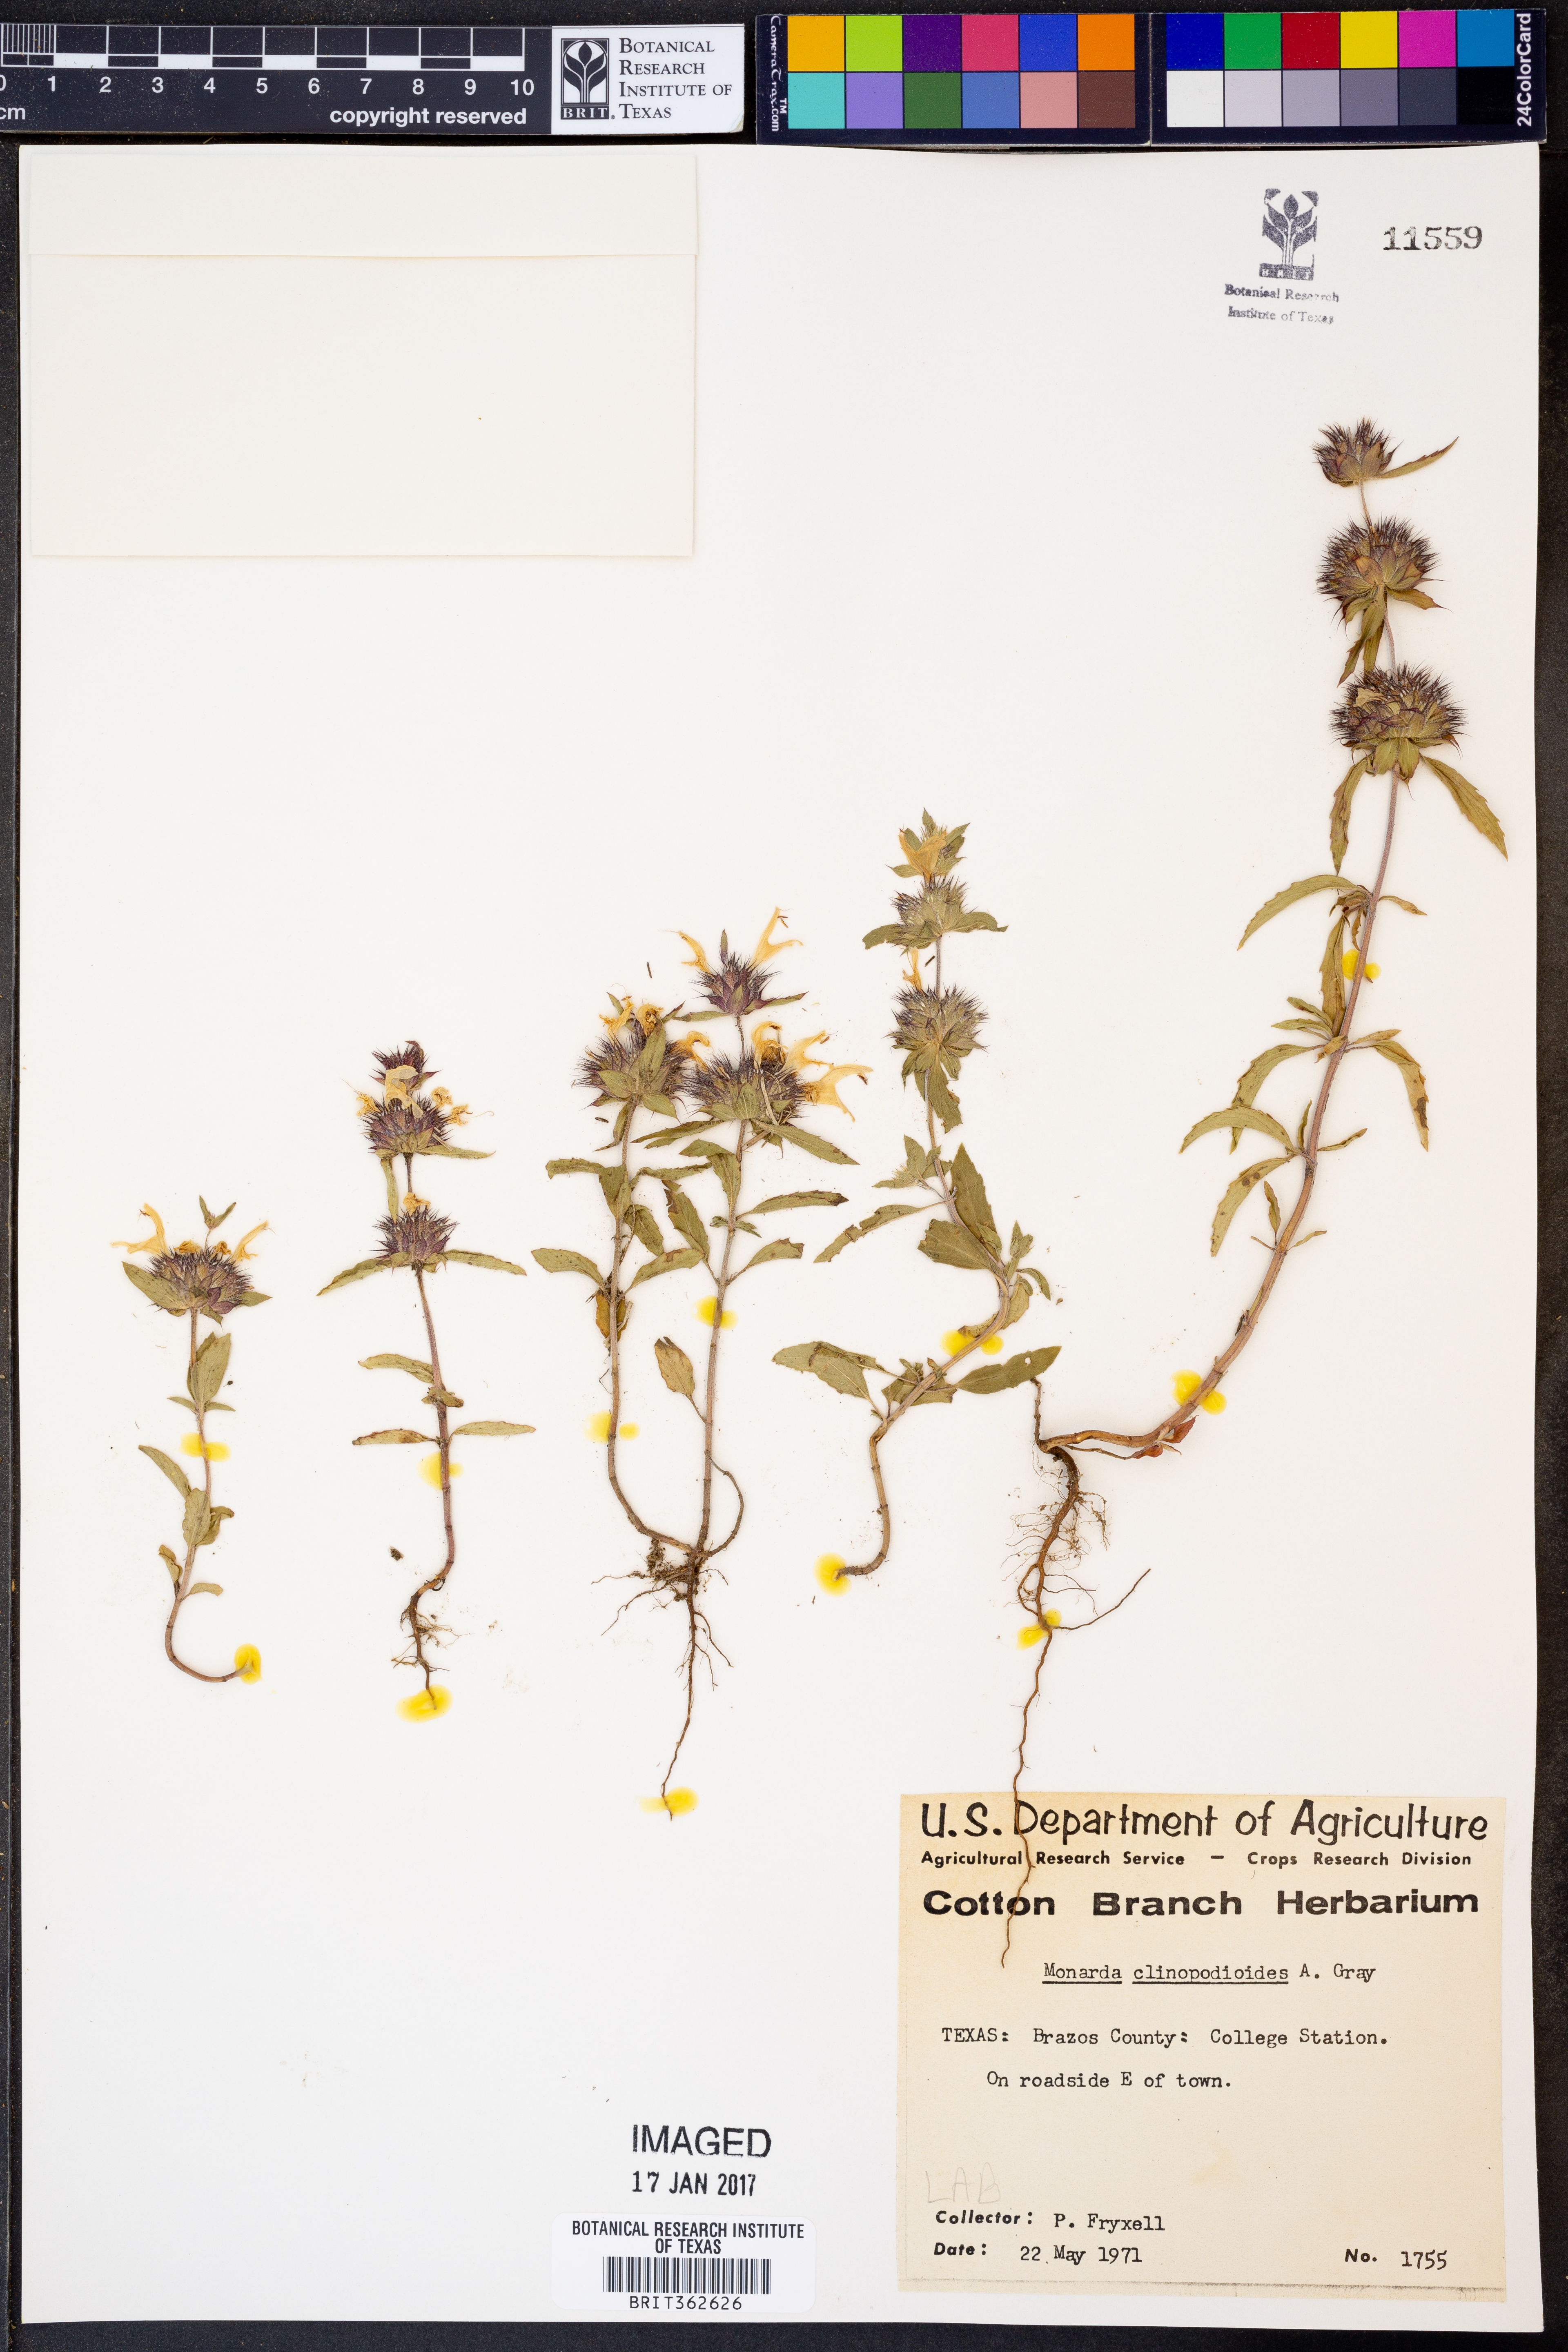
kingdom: Plantae
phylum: Tracheophyta
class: Magnoliopsida
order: Lamiales
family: Lamiaceae
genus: Monarda
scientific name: Monarda clinopodioides
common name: Basil beebalm
